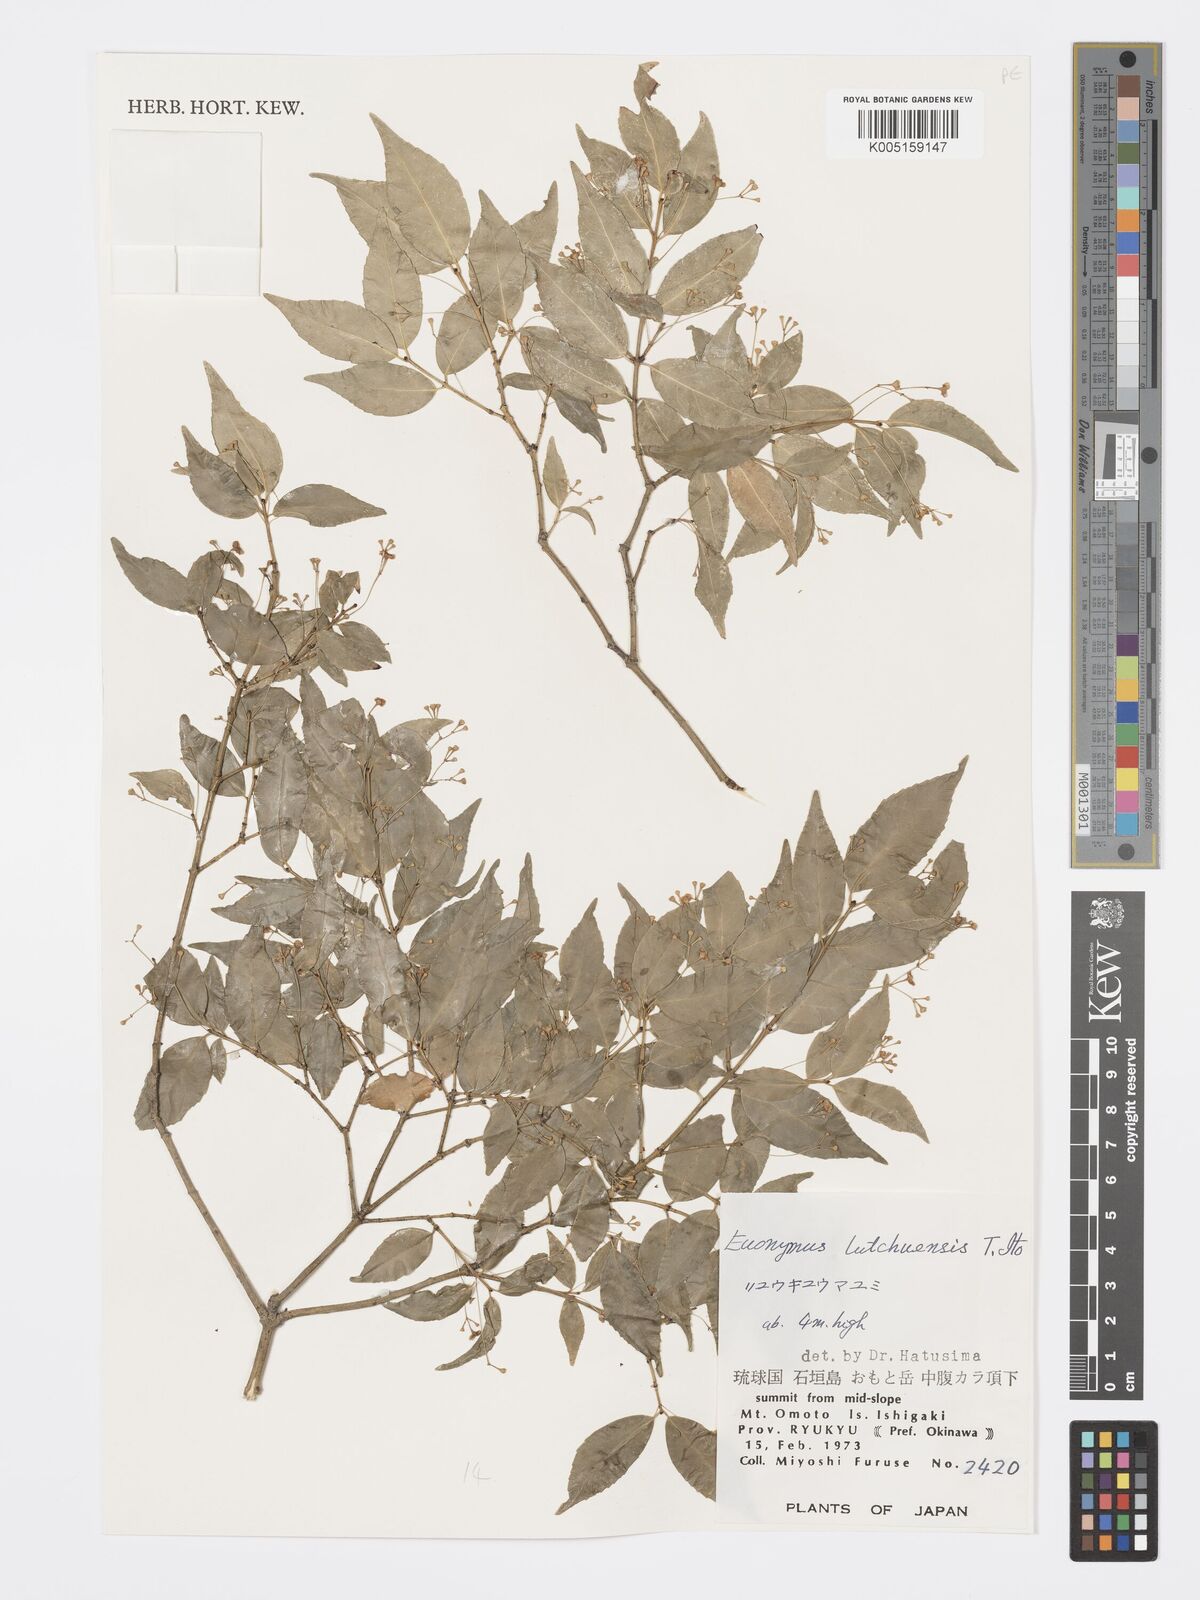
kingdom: Plantae
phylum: Tracheophyta
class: Magnoliopsida
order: Celastrales
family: Celastraceae
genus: Euonymus
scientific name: Euonymus lutchuensis
